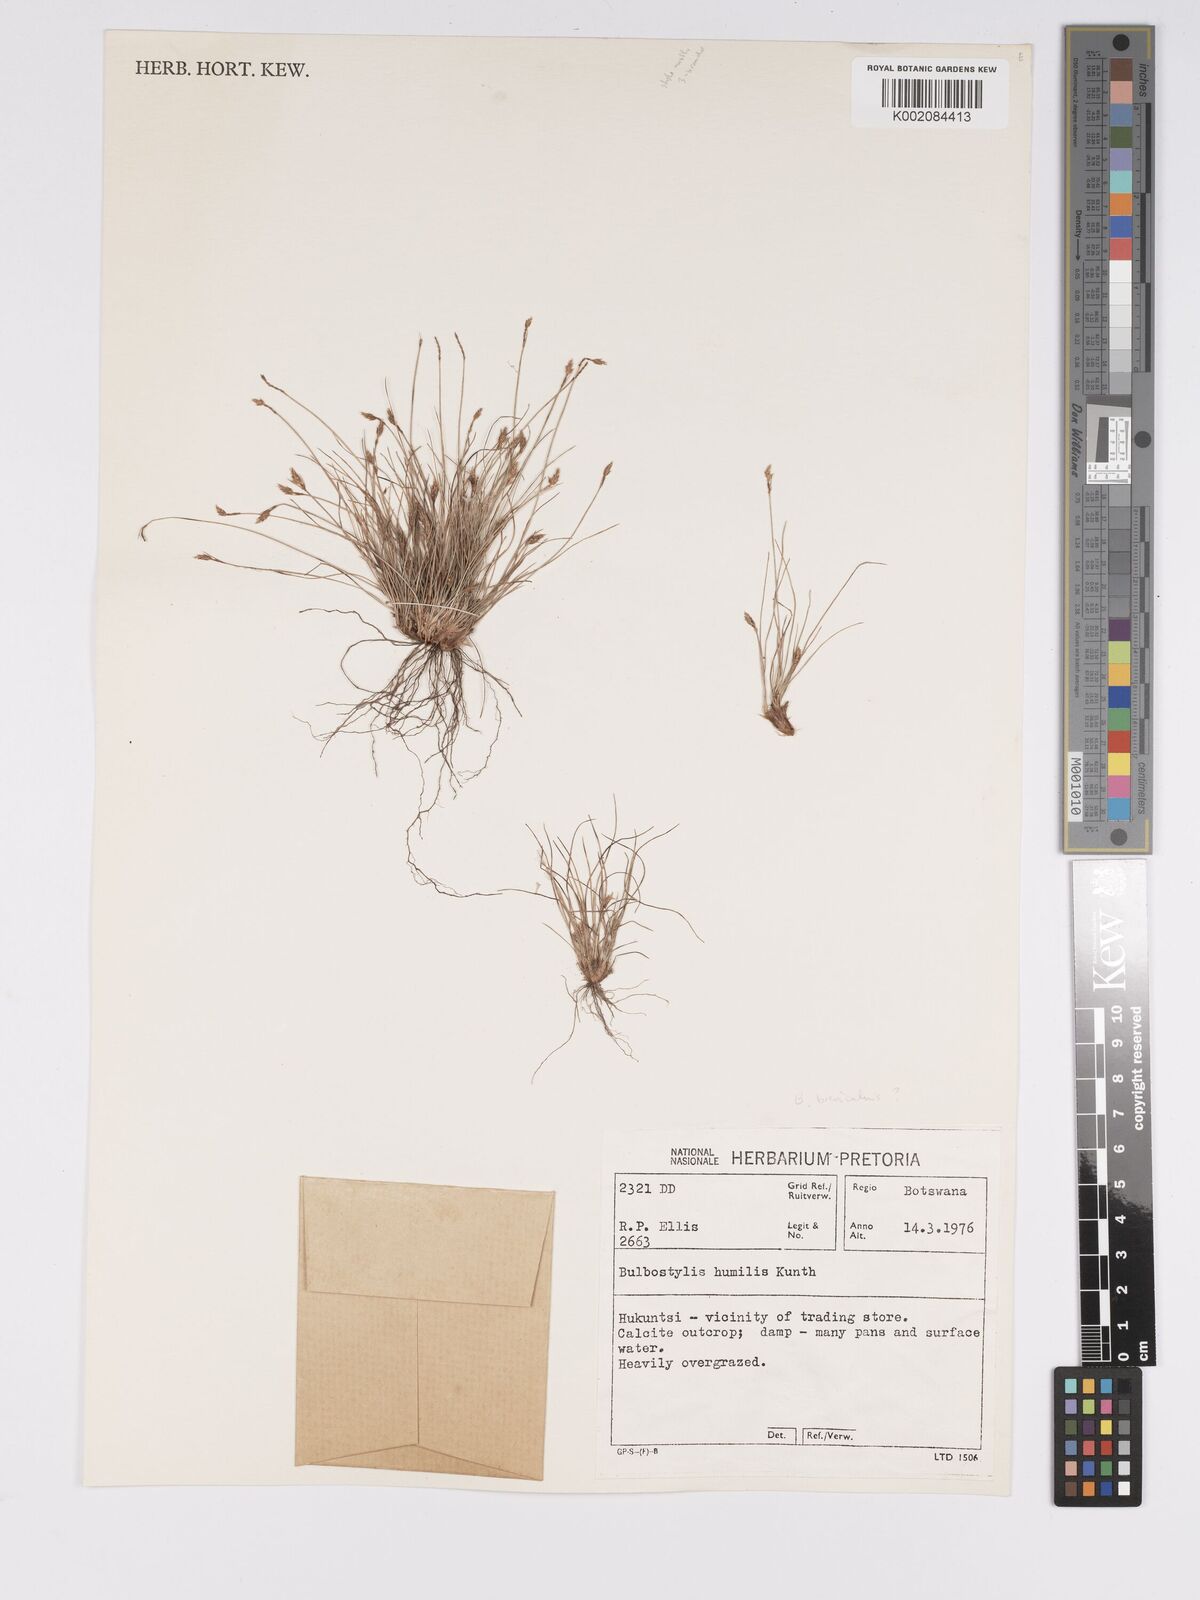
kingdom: Plantae
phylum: Tracheophyta
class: Liliopsida
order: Poales
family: Cyperaceae
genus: Bulbostylis
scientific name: Bulbostylis humilis
